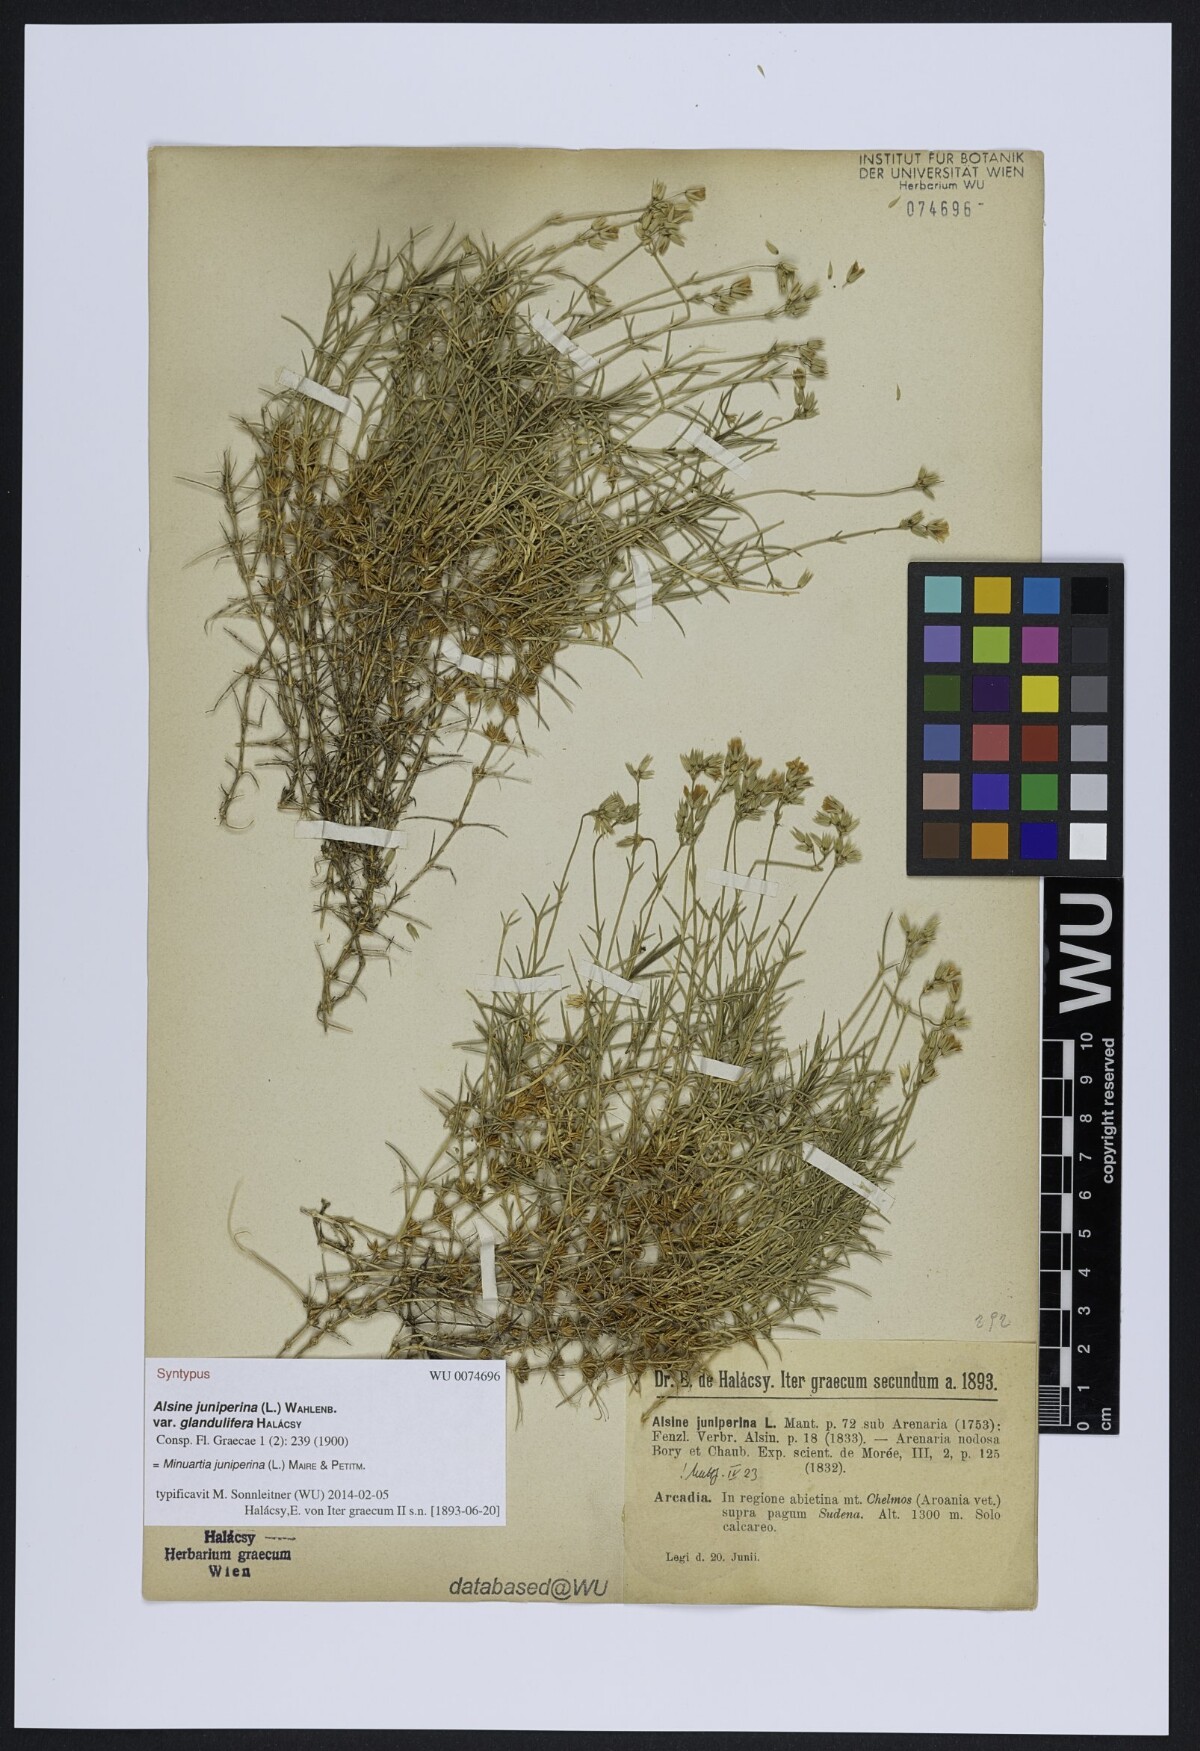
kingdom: Plantae
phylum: Tracheophyta
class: Magnoliopsida
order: Caryophyllales
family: Caryophyllaceae
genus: Sabulina
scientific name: Sabulina juniperina
